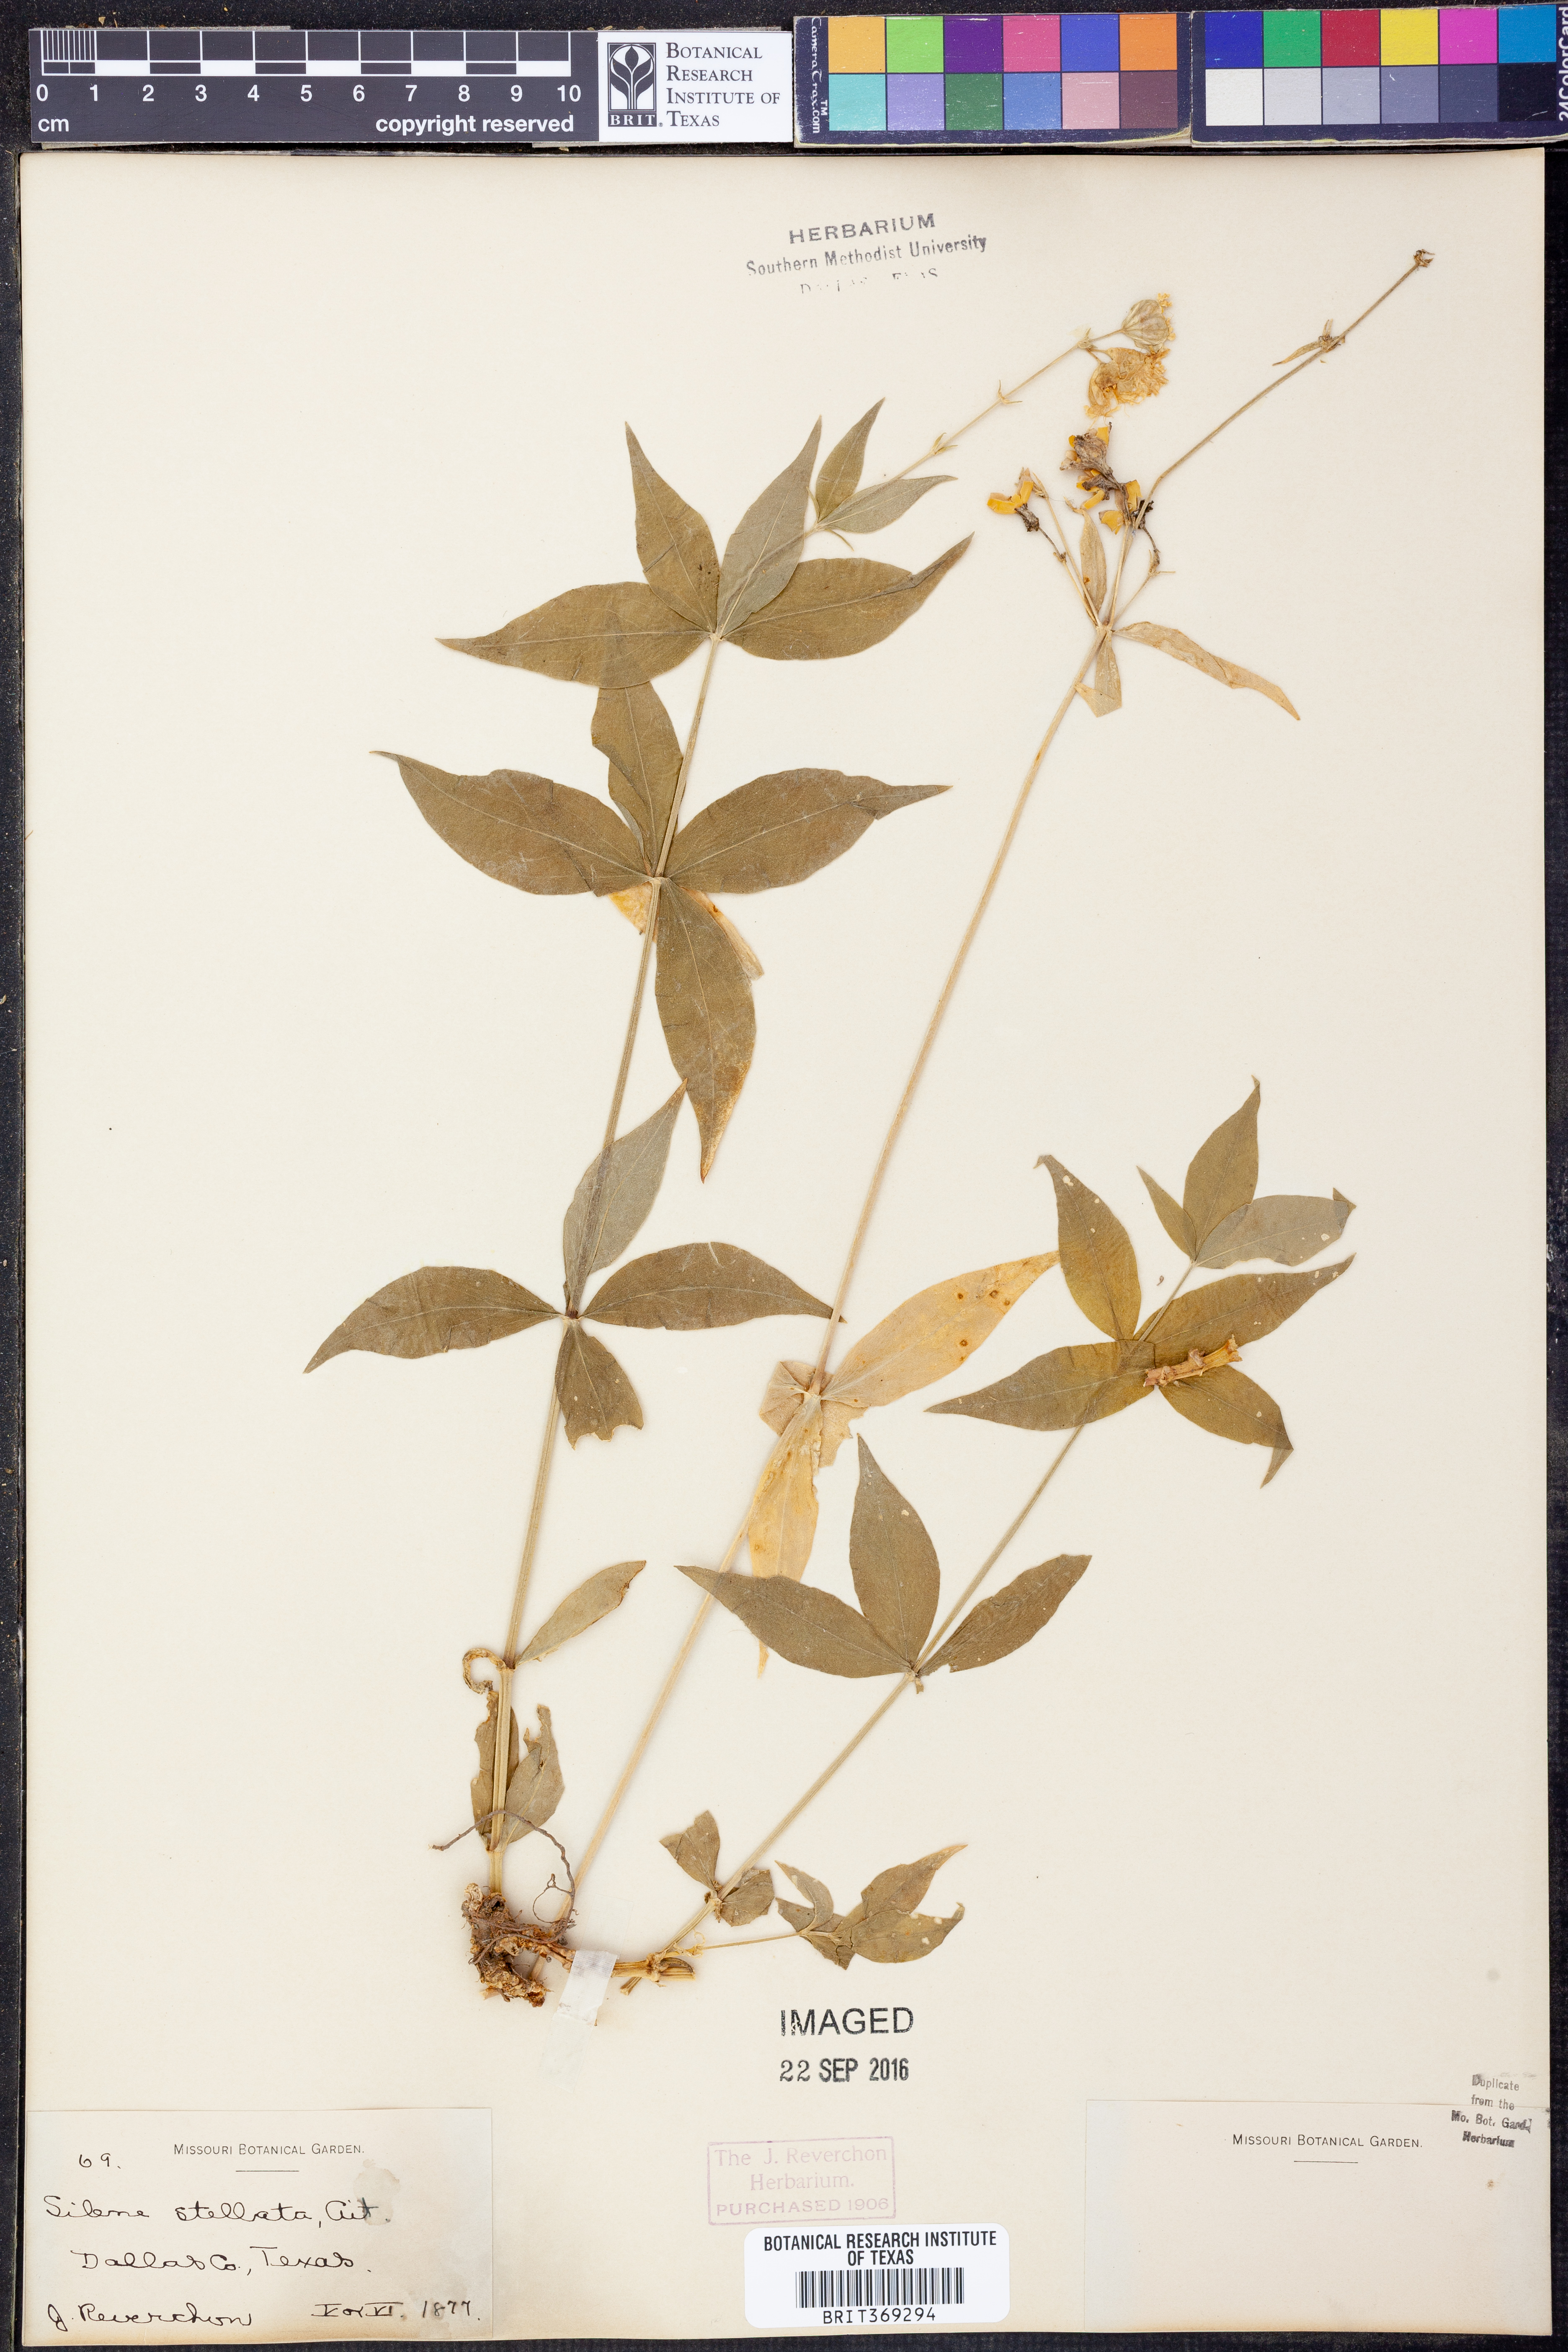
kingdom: Plantae
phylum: Tracheophyta
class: Magnoliopsida
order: Caryophyllales
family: Caryophyllaceae
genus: Silene
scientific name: Silene stellata
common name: Starry campion
